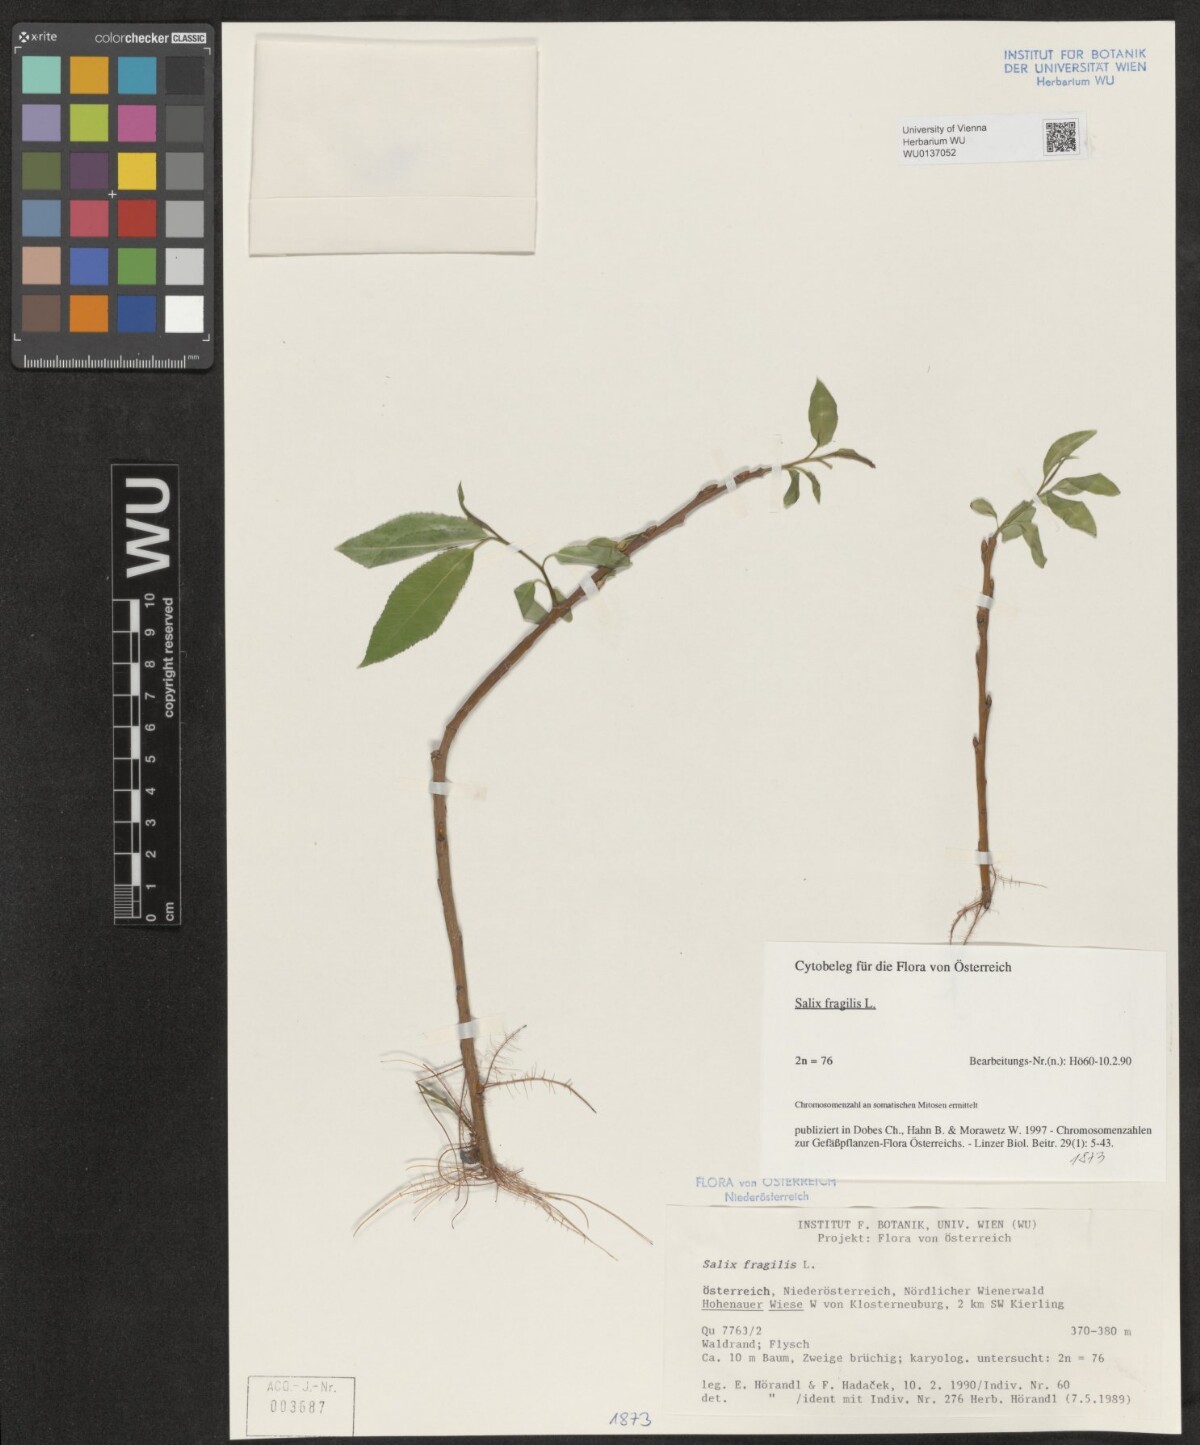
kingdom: Plantae
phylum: Tracheophyta
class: Magnoliopsida
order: Malpighiales
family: Salicaceae
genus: Salix
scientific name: Salix fragilis
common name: Crack willow
